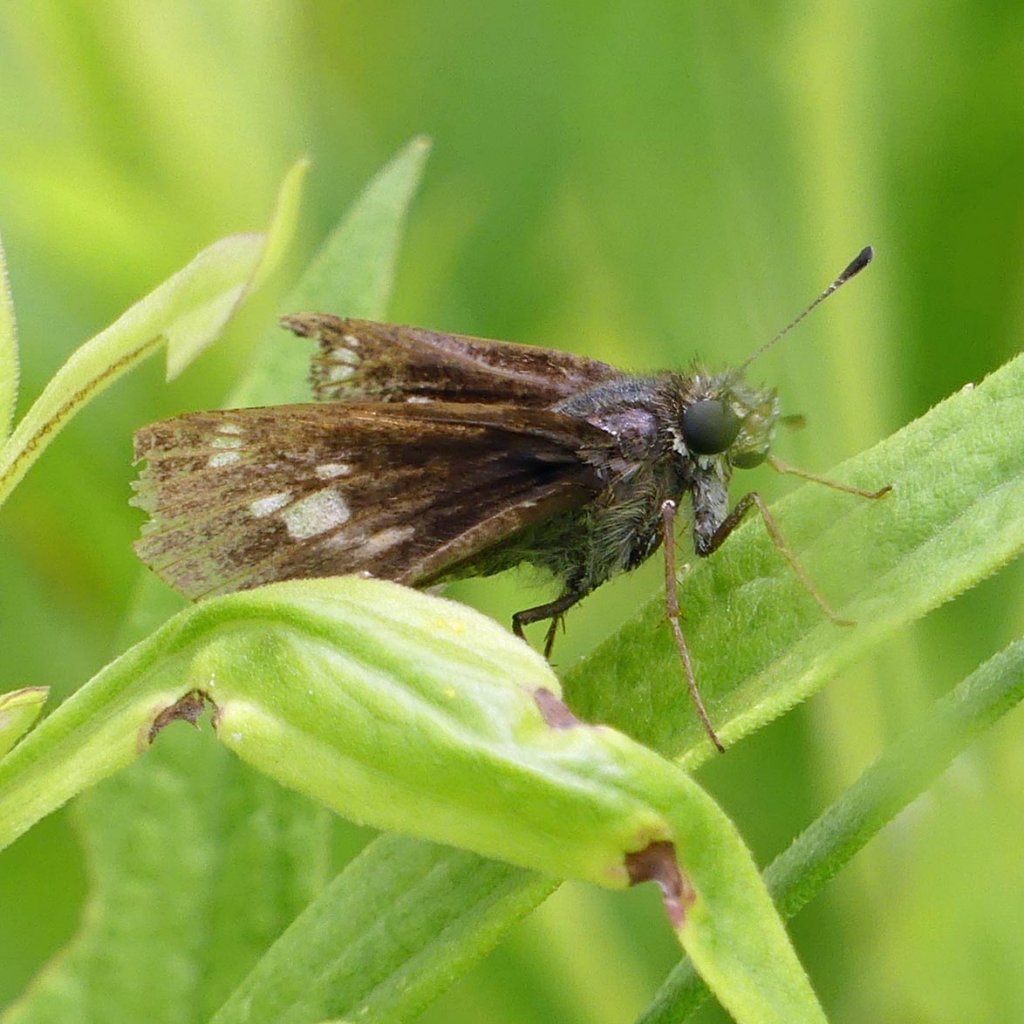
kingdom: Animalia
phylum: Arthropoda
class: Insecta
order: Lepidoptera
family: Hesperiidae
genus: Vernia
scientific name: Vernia verna
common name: Little Glassywing
